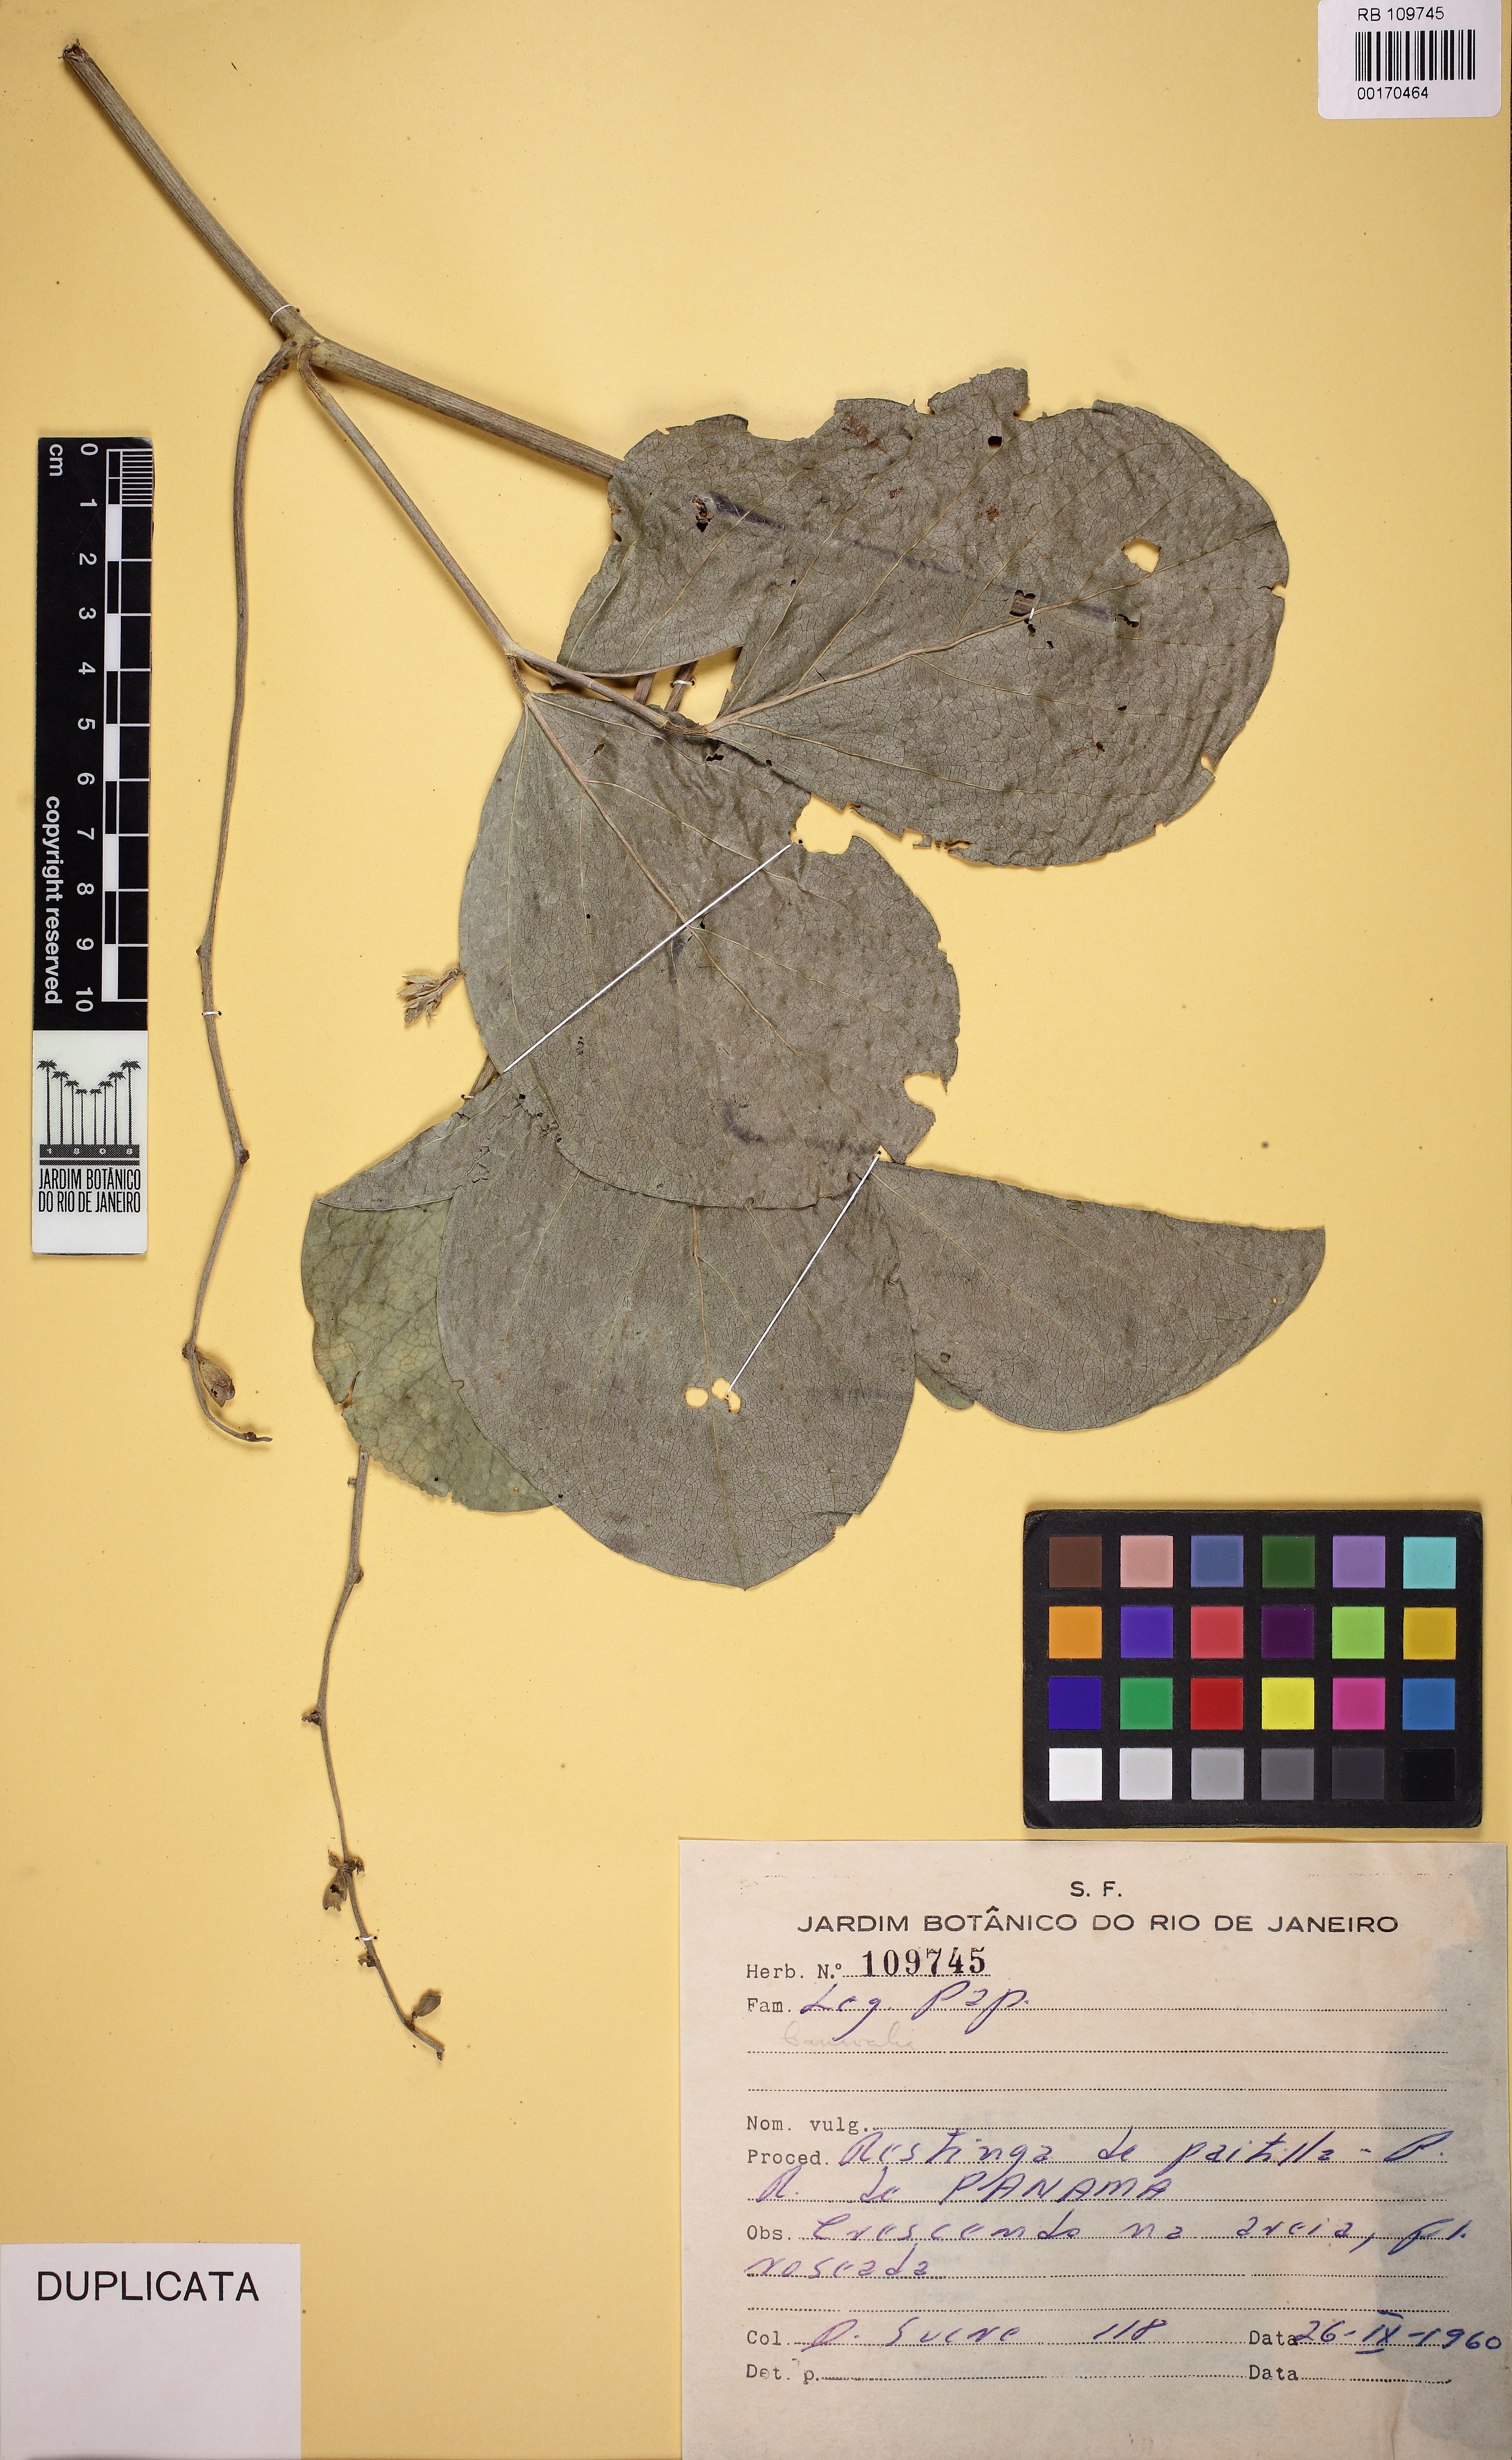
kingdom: Plantae
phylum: Tracheophyta
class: Magnoliopsida
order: Fabales
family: Fabaceae
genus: Canavalia
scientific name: Canavalia rosea
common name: Beach-bean
